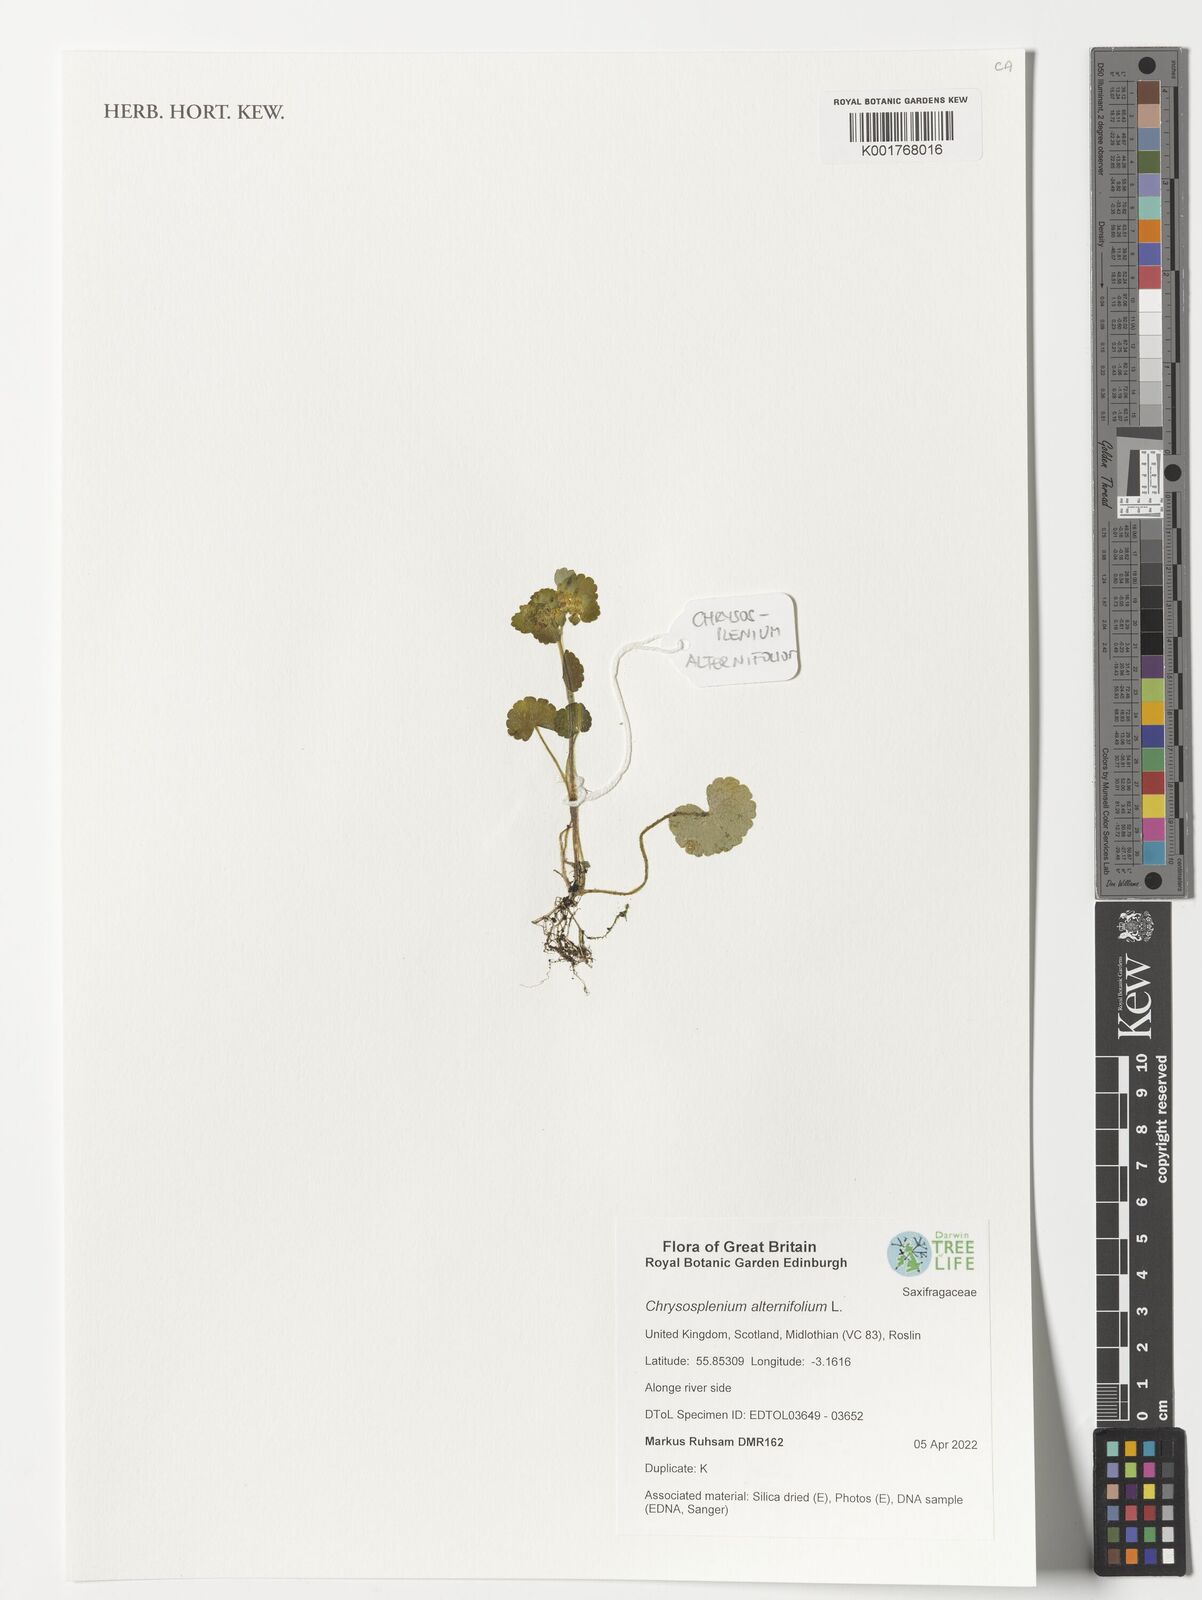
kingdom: Plantae
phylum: Tracheophyta
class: Magnoliopsida
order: Saxifragales
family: Saxifragaceae
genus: Chrysosplenium
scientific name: Chrysosplenium alternifolium
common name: Alternate-leaved golden-saxifrage
